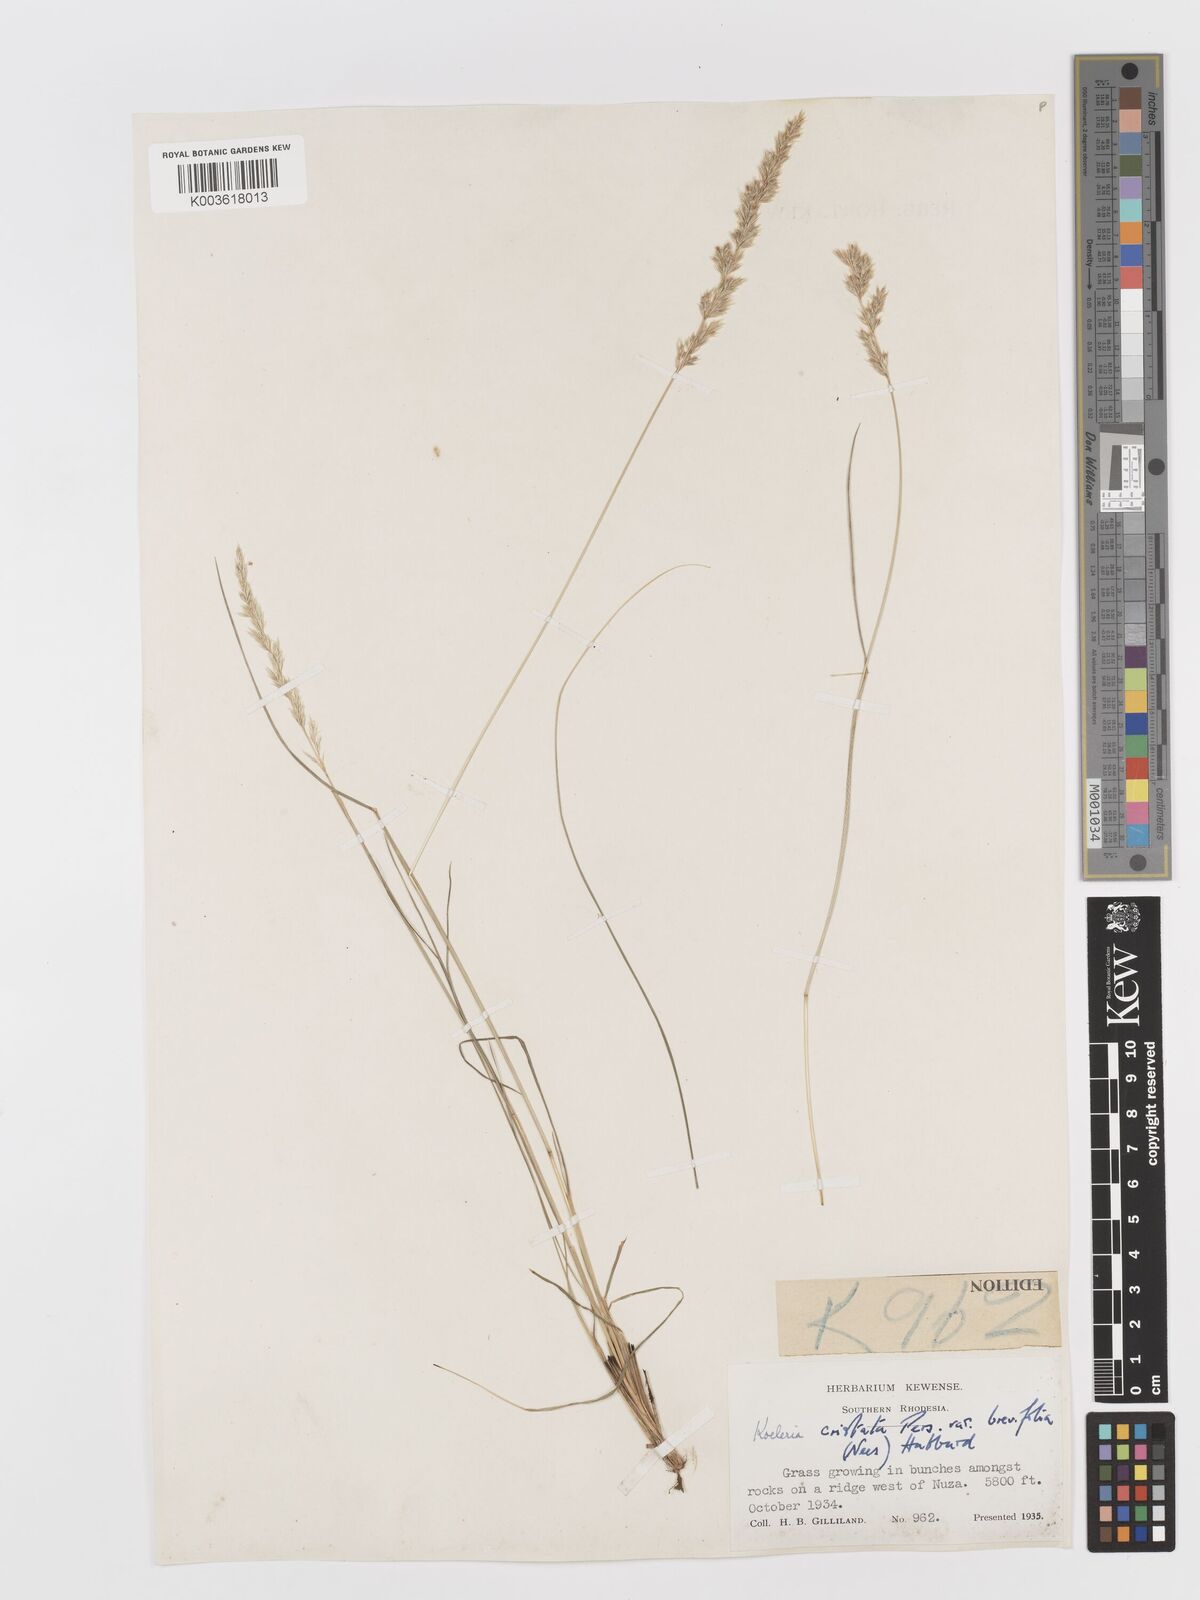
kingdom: Plantae
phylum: Tracheophyta
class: Liliopsida
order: Poales
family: Poaceae
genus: Koeleria
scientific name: Koeleria capensis
